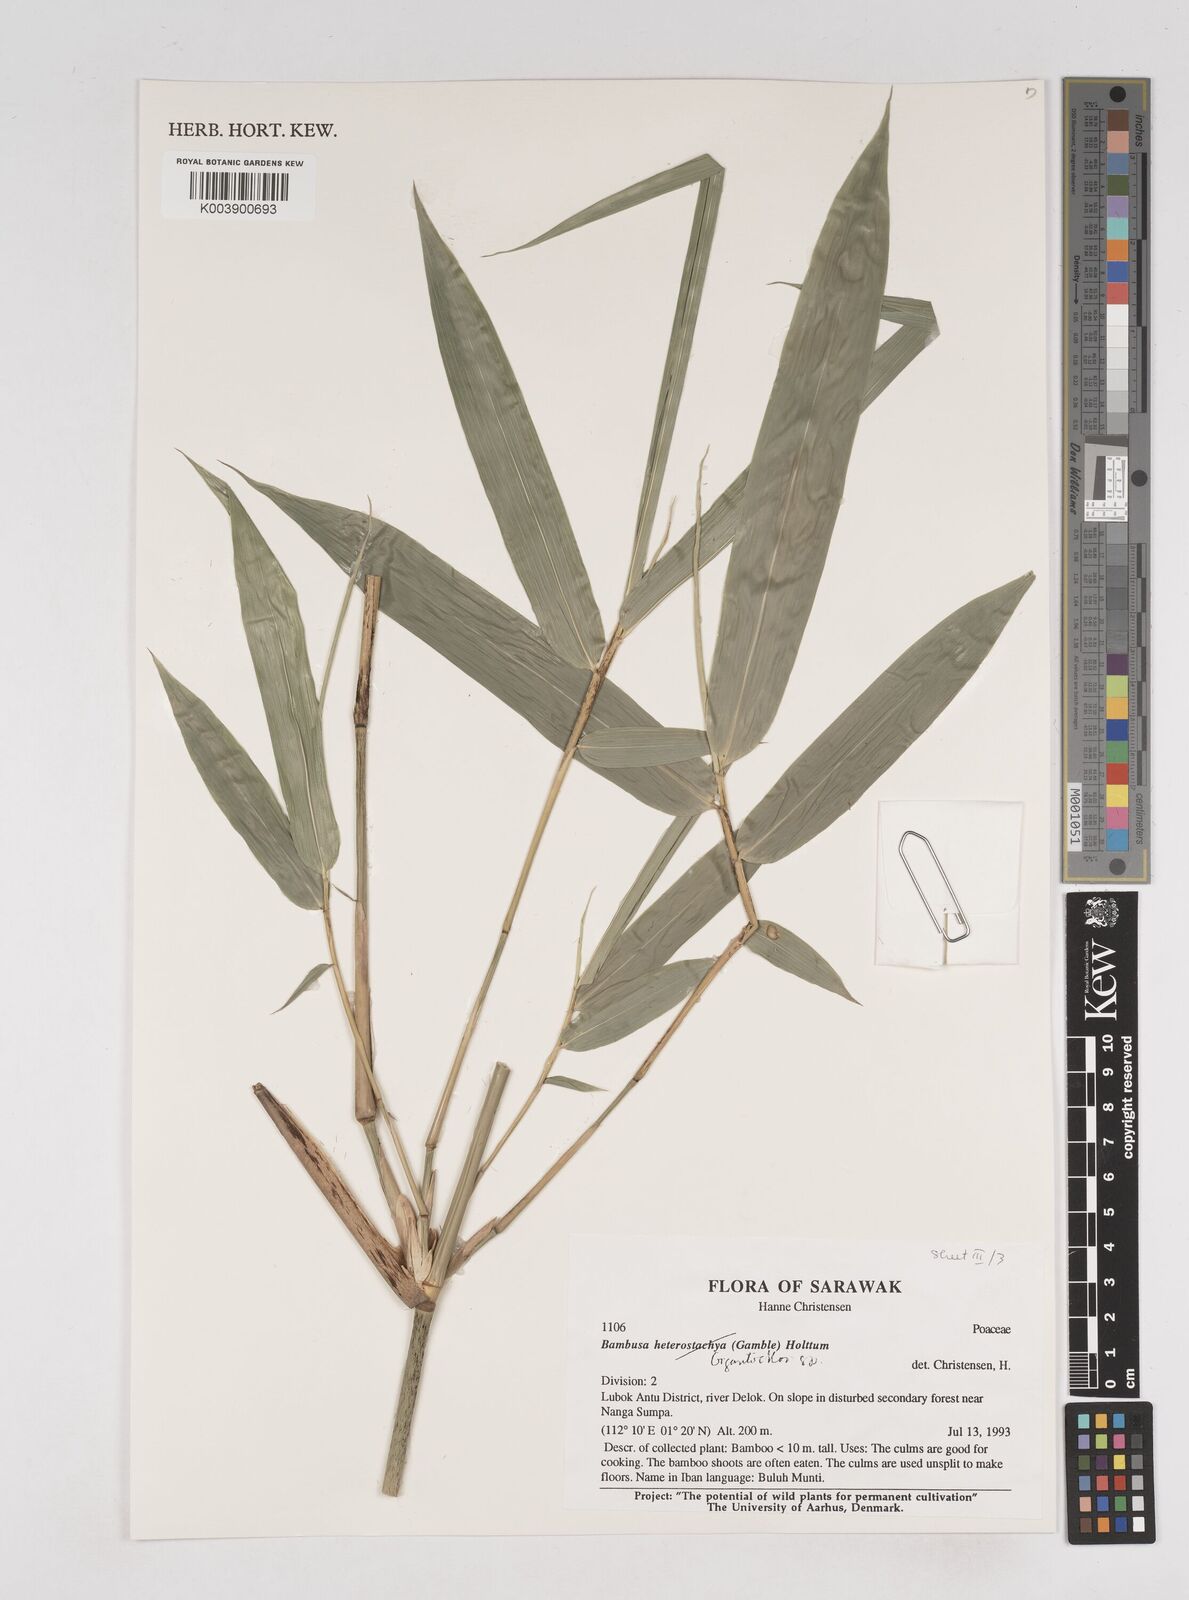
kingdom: Plantae
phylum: Tracheophyta
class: Liliopsida
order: Poales
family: Poaceae
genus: Gigantochloa
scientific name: Gigantochloa
